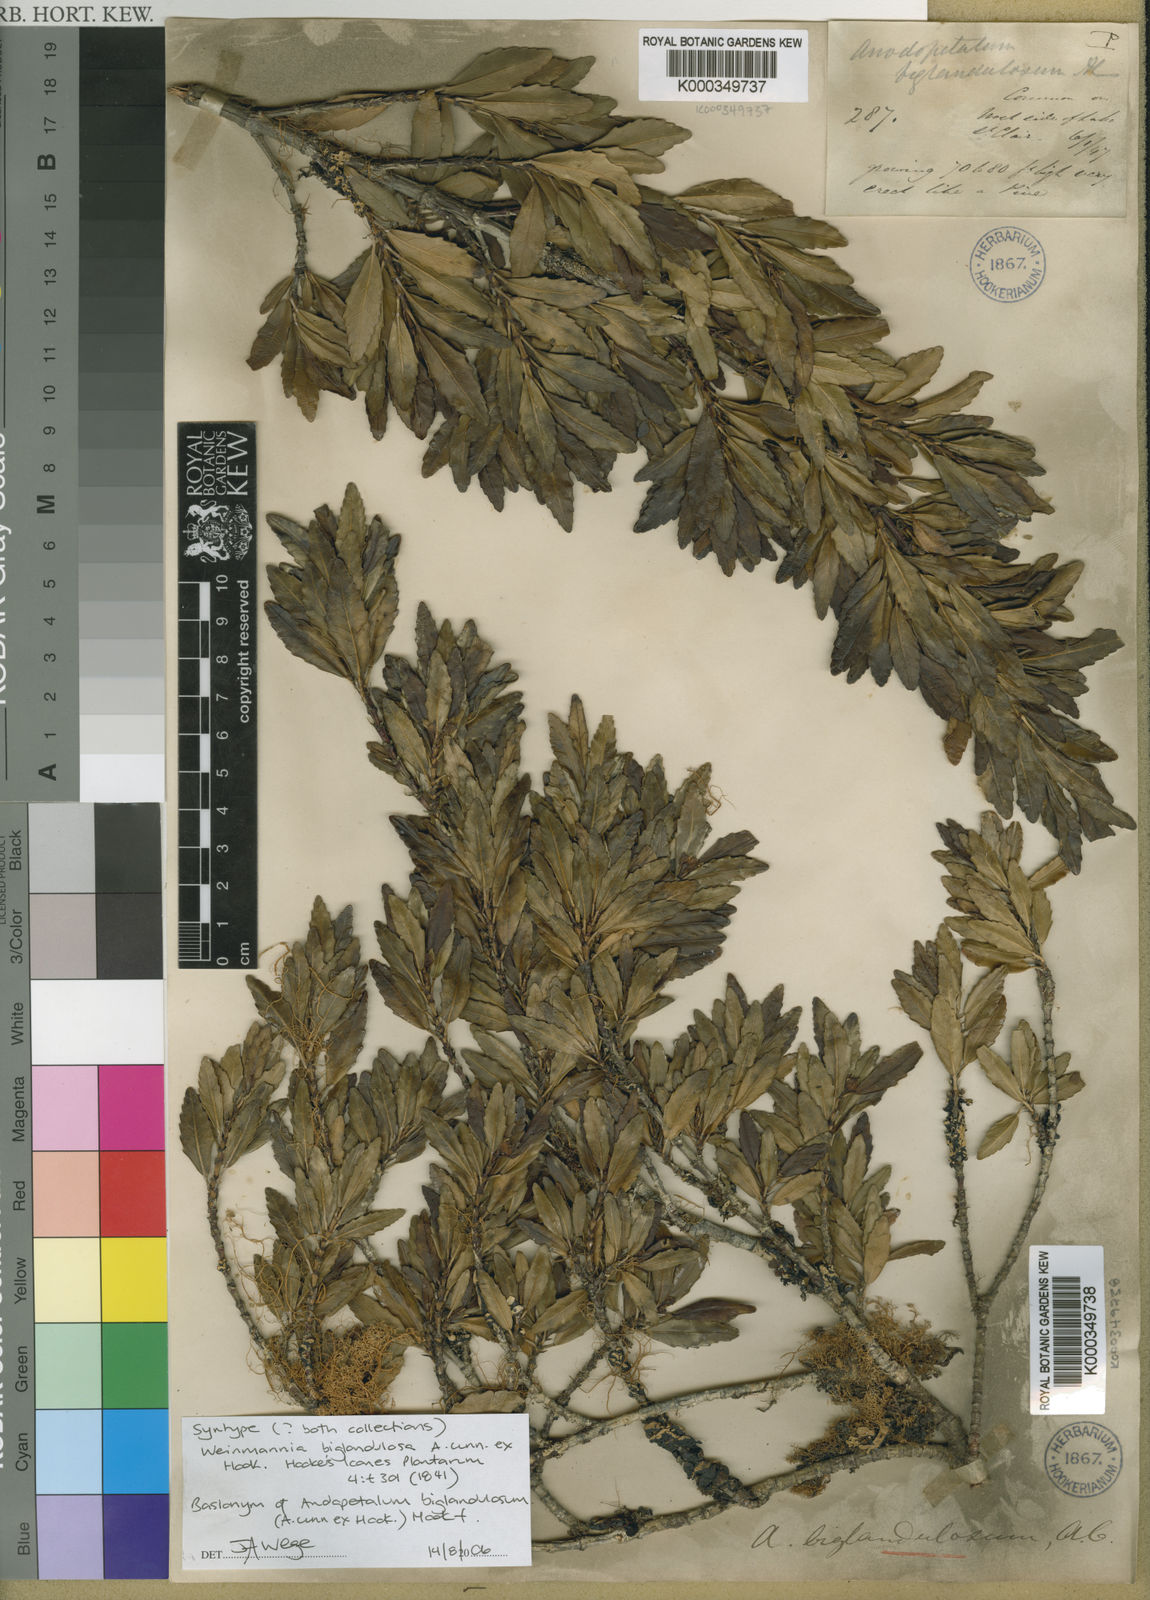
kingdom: Plantae
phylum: Tracheophyta
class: Magnoliopsida
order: Oxalidales
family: Cunoniaceae
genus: Anodopetalum
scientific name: Anodopetalum biglandulosum
